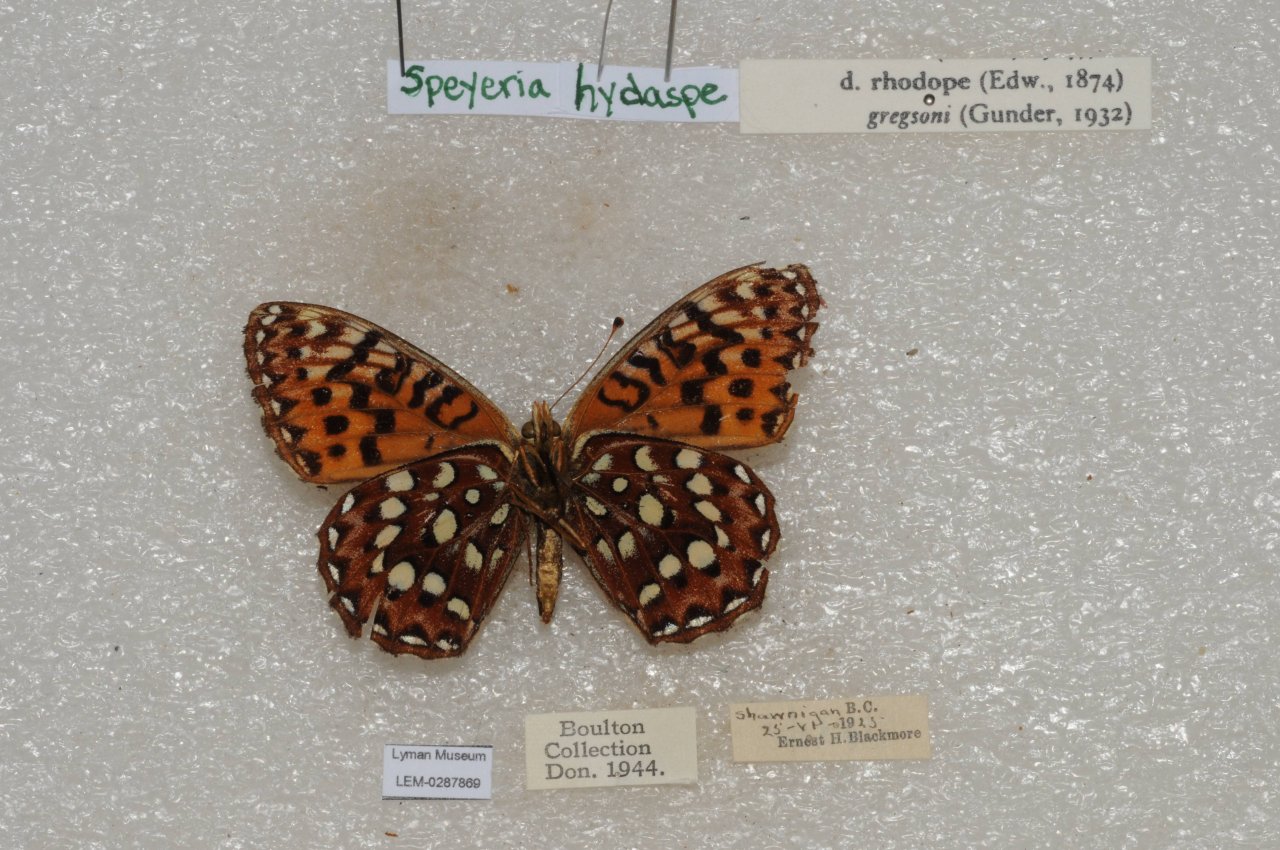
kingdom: Animalia
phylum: Arthropoda
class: Insecta
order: Lepidoptera
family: Nymphalidae
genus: Speyeria
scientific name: Speyeria hydaspe
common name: Hydaspe Fritillary
